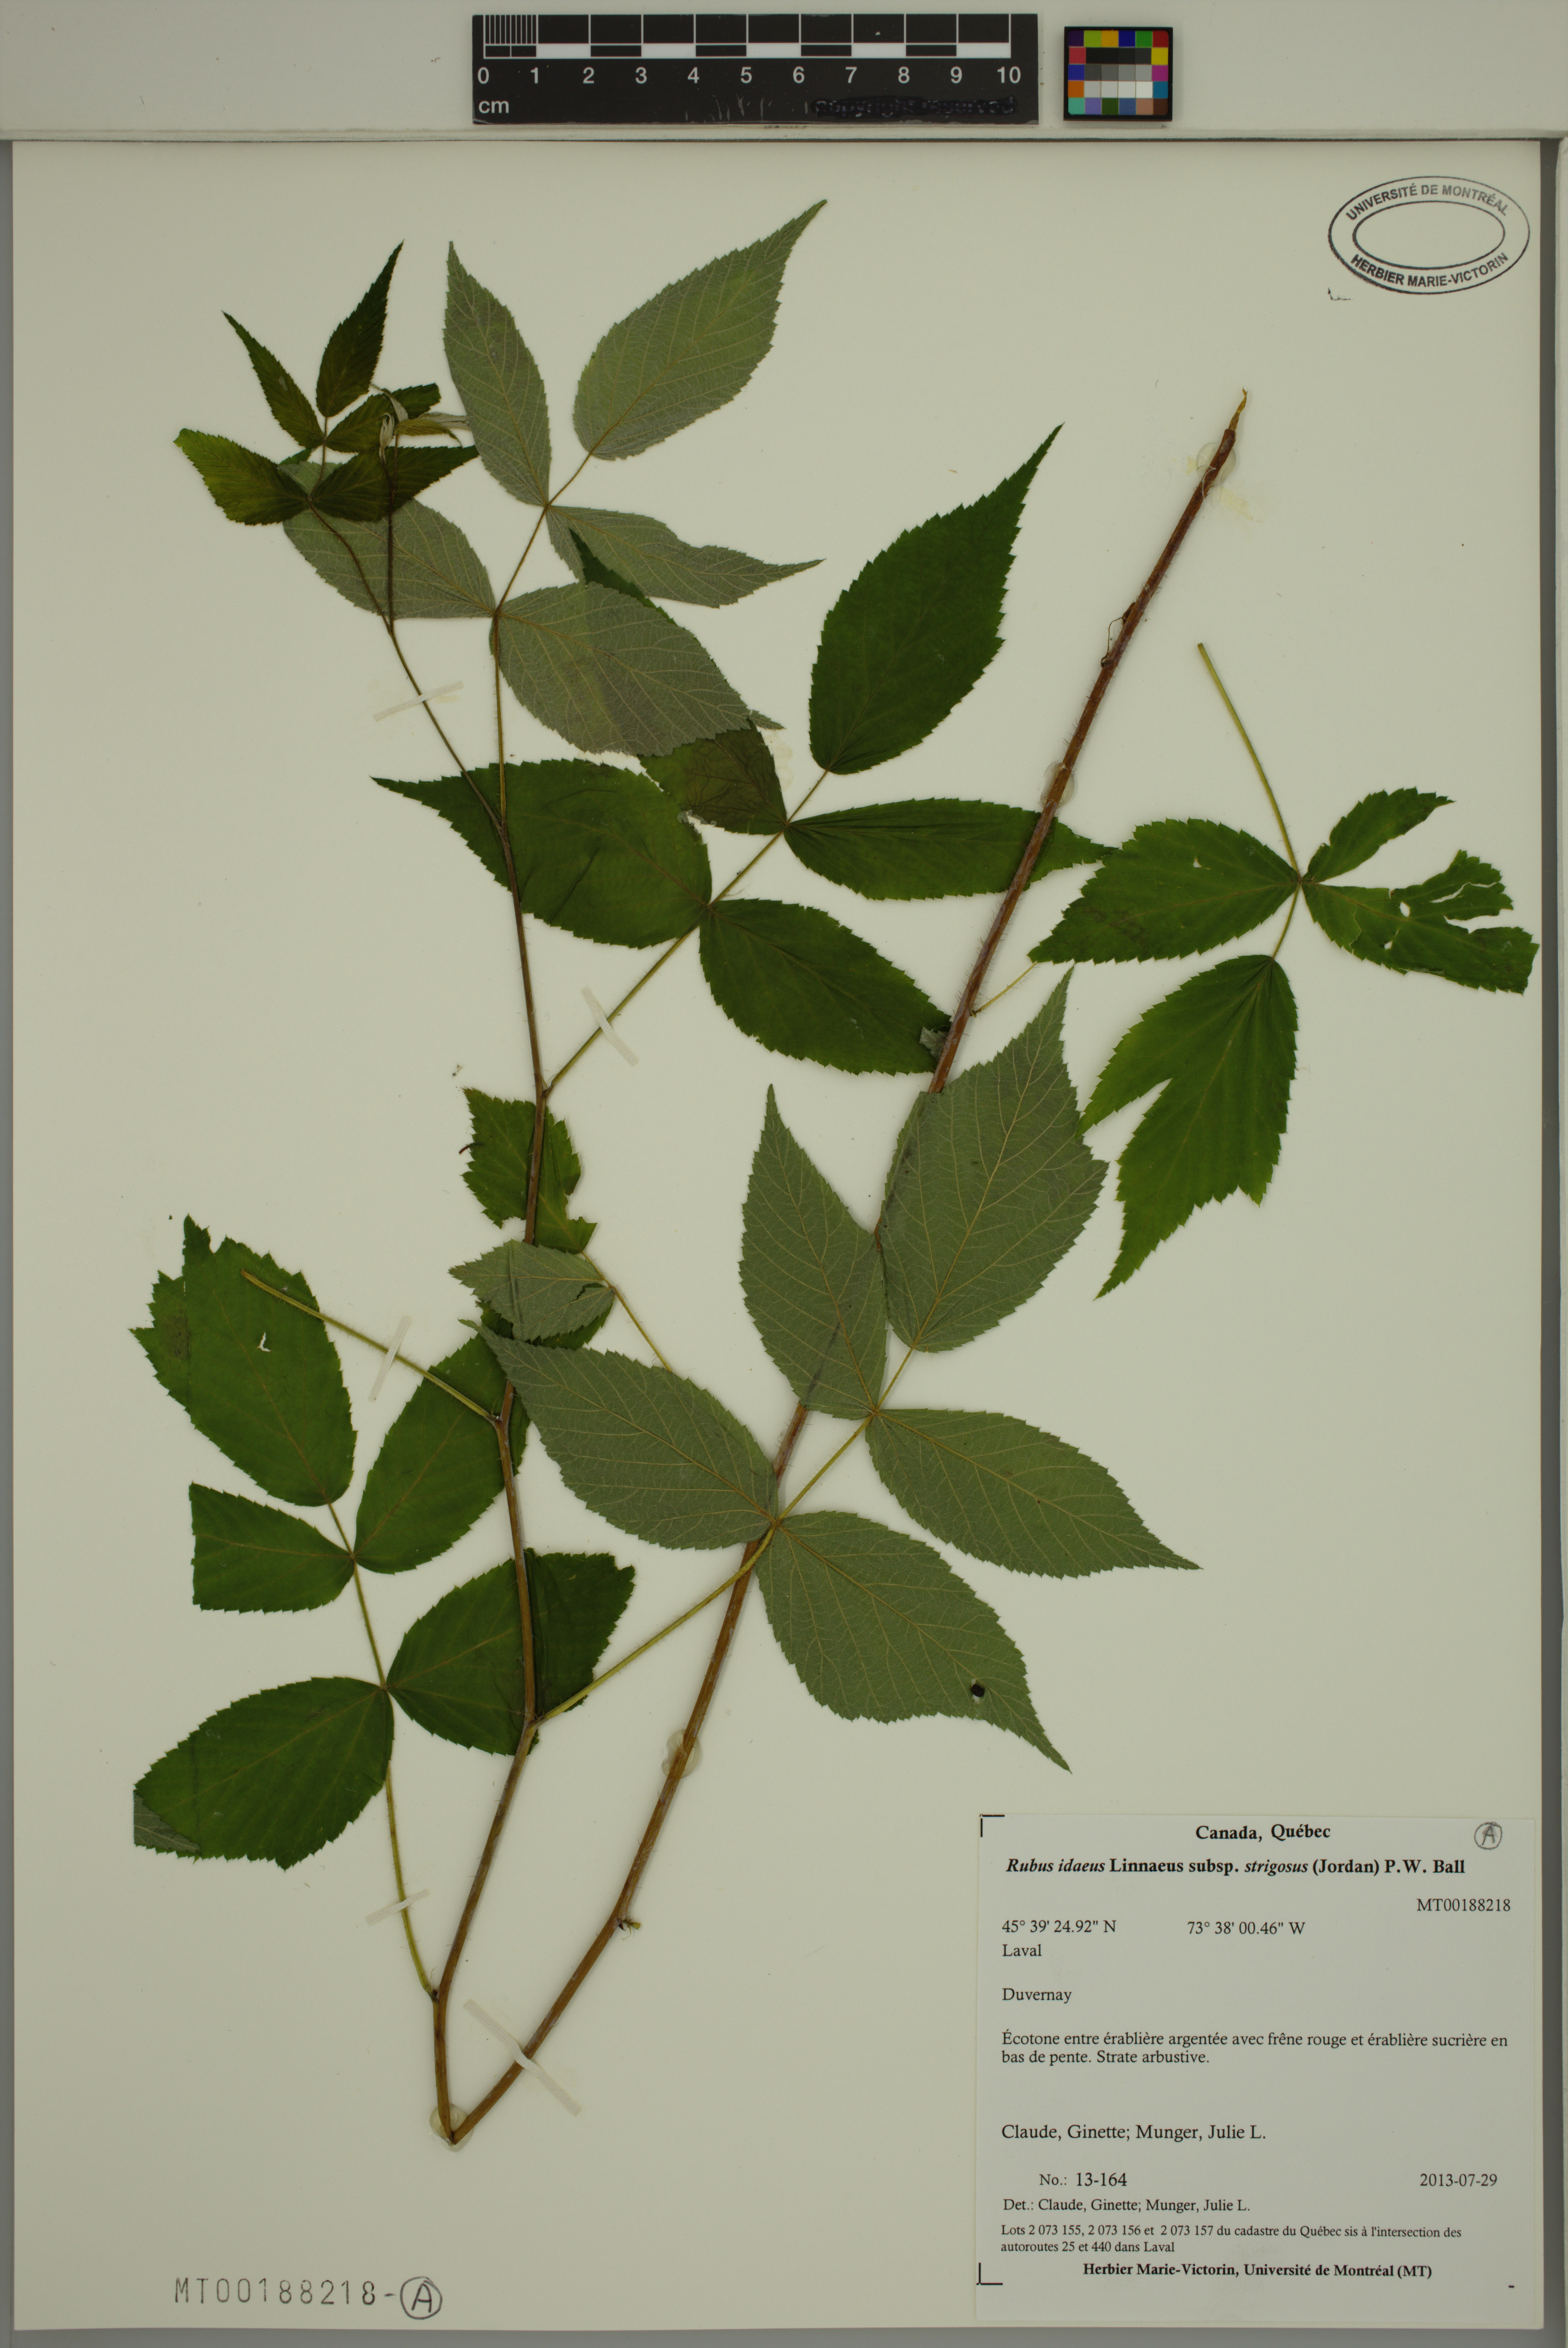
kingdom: Plantae
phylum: Tracheophyta
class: Magnoliopsida
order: Rosales
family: Rosaceae
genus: Rubus
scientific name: Rubus sachalinensis
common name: Red raspberry
